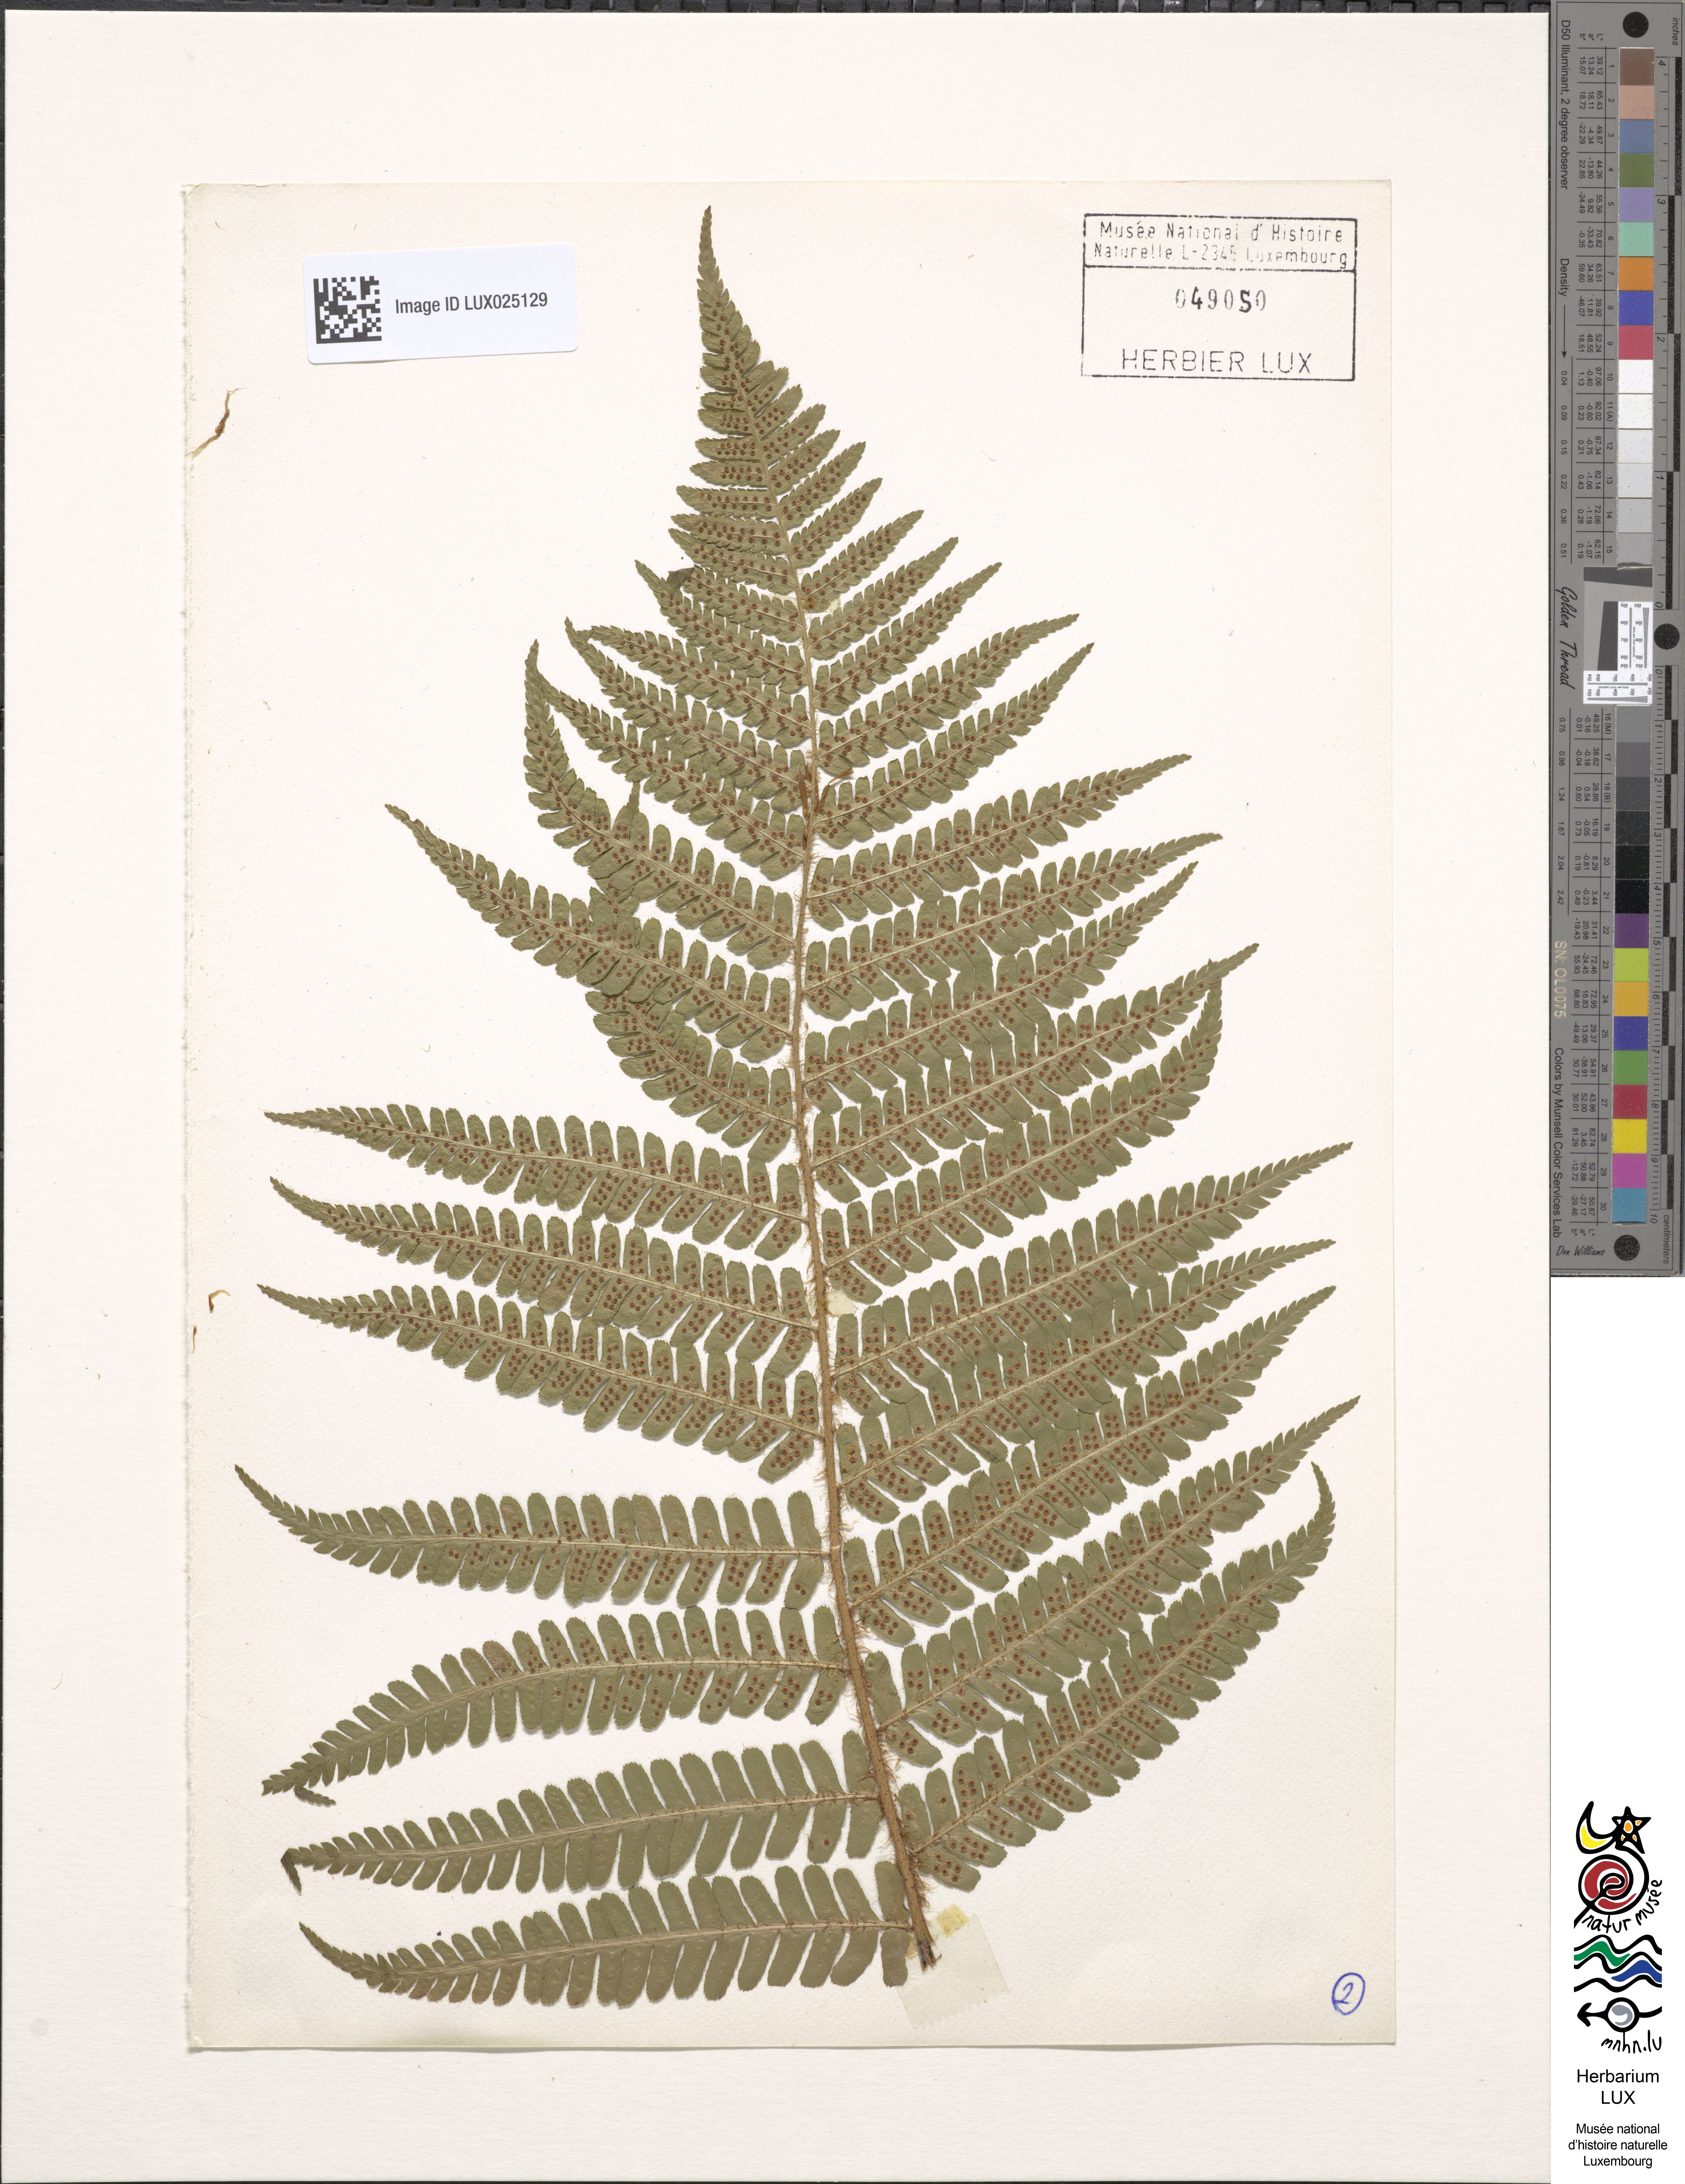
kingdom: Plantae
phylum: Tracheophyta
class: Polypodiopsida
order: Polypodiales
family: Dryopteridaceae
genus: Dryopteris
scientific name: Dryopteris filix-mas
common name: Male fern
